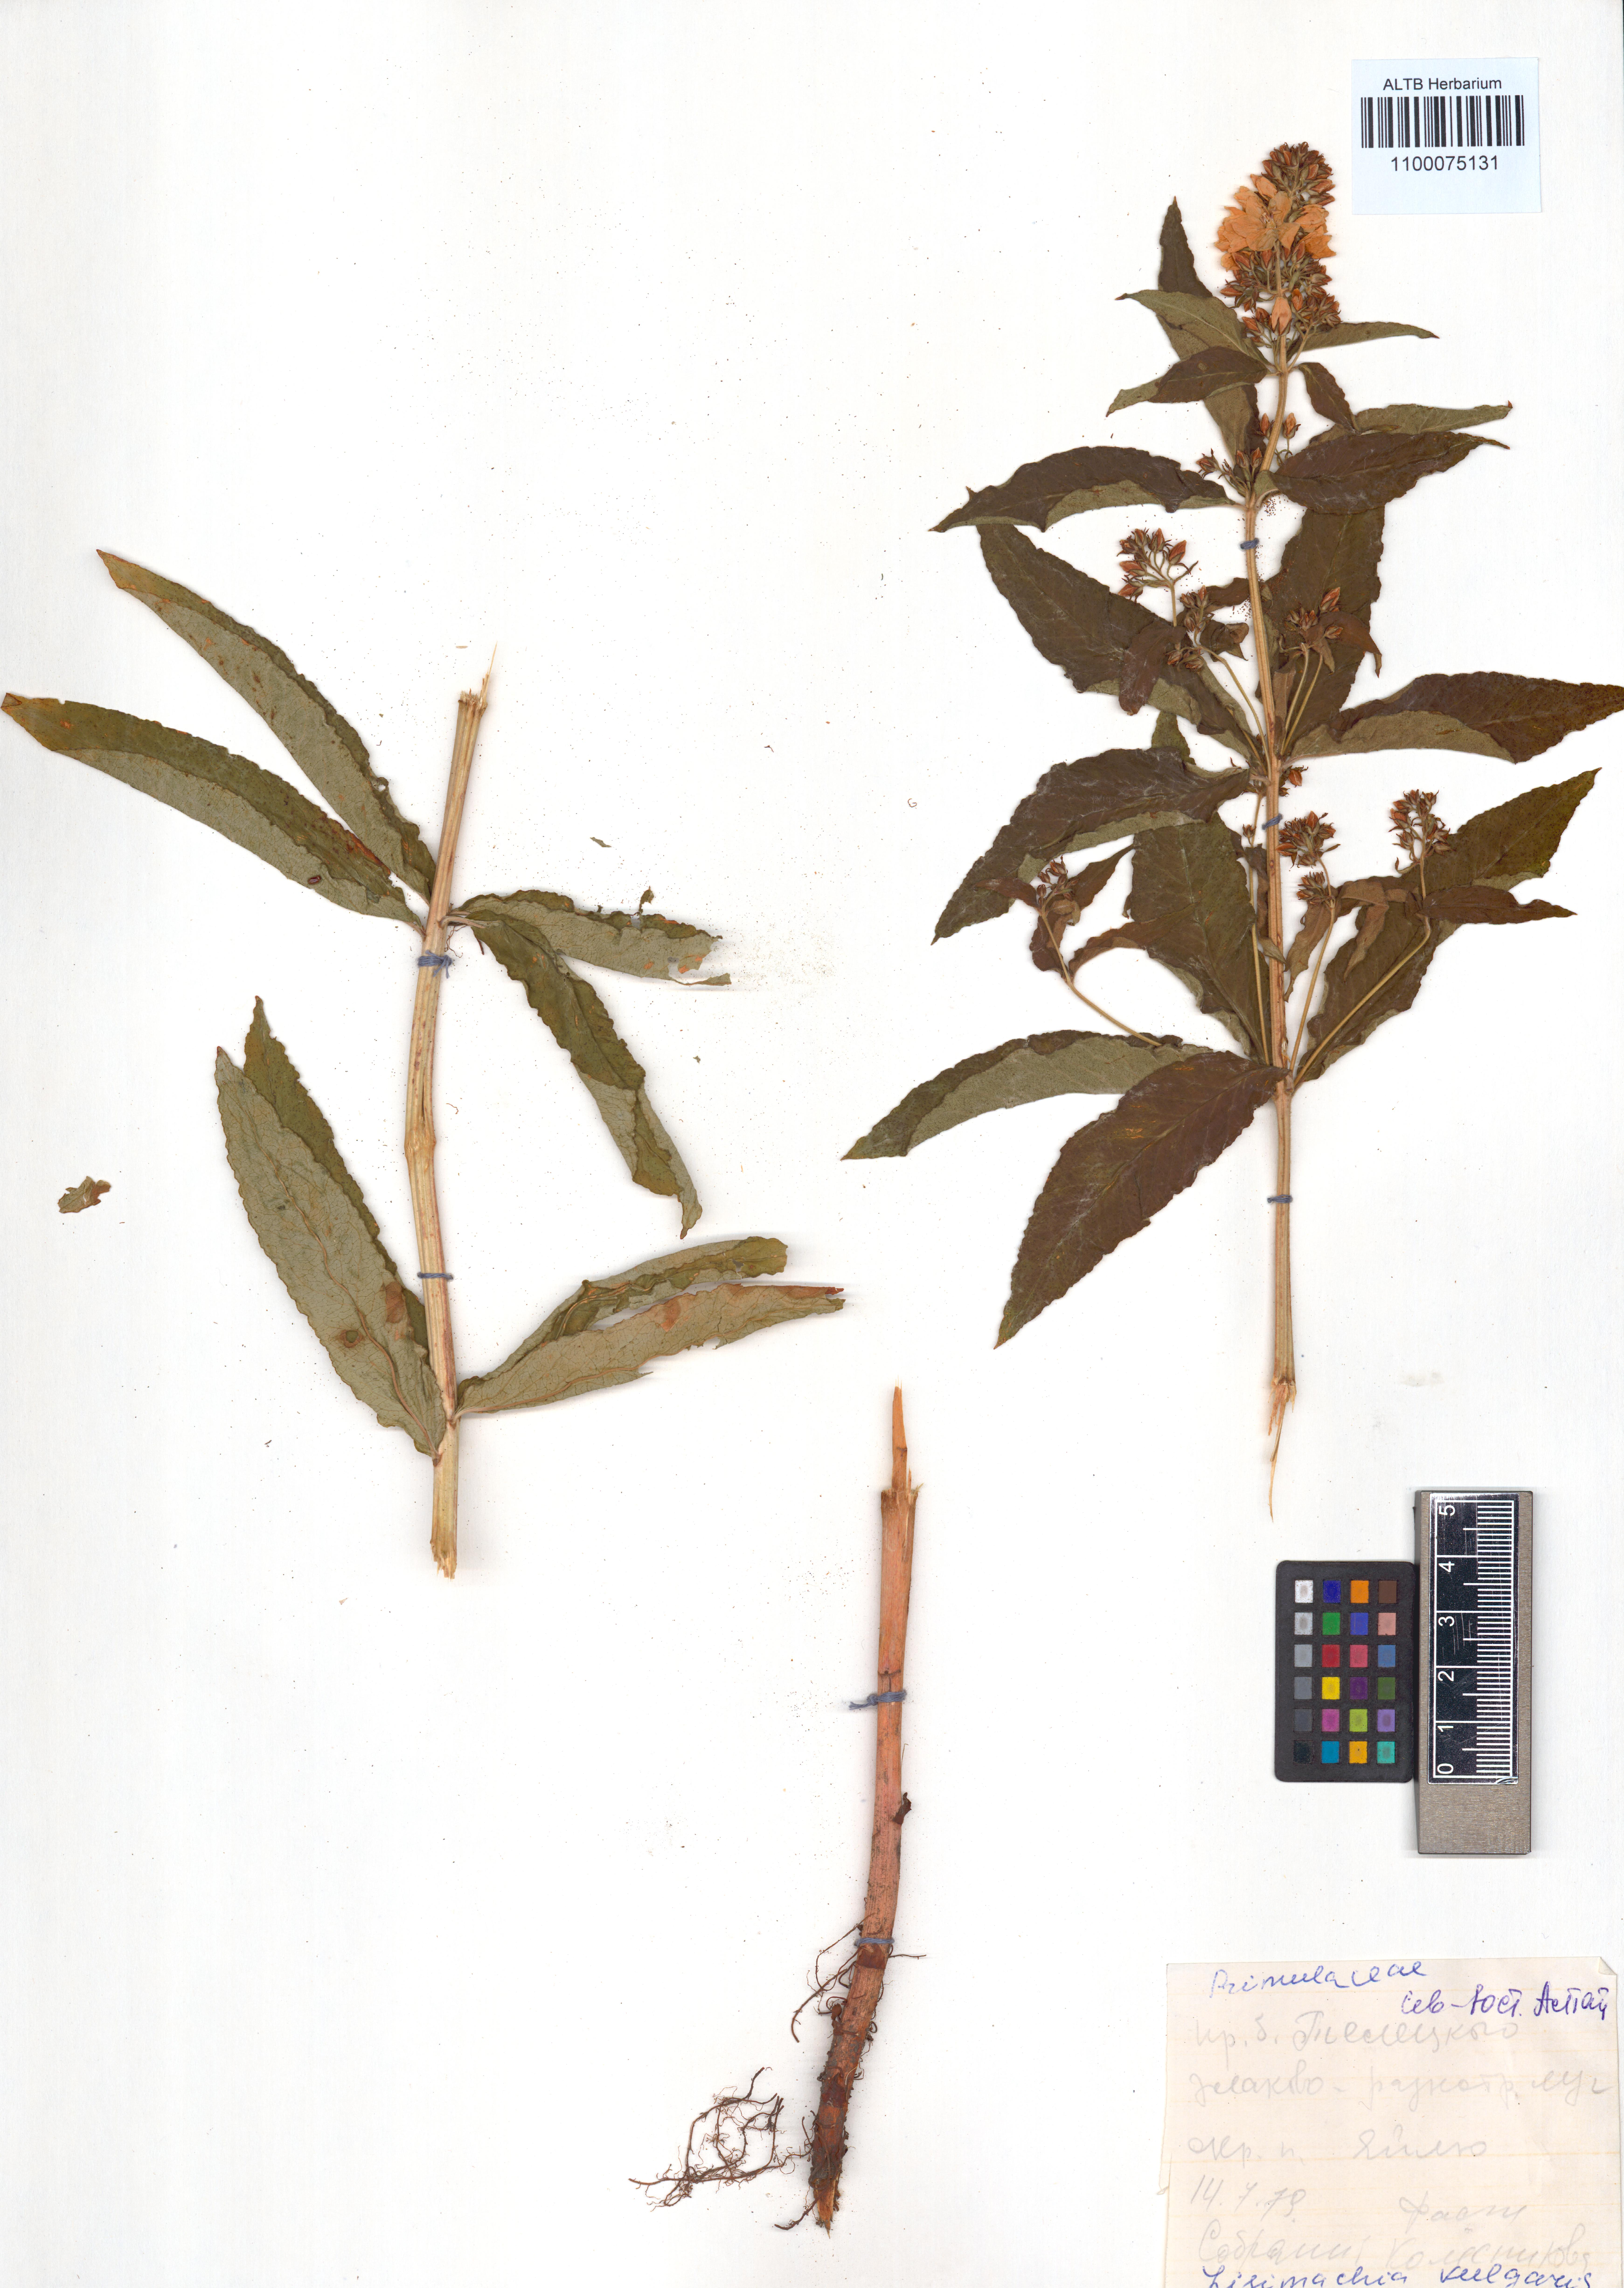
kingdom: Plantae
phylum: Tracheophyta
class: Magnoliopsida
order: Ericales
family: Primulaceae
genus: Lysimachia
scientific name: Lysimachia vulgaris
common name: Yellow loosestrife
